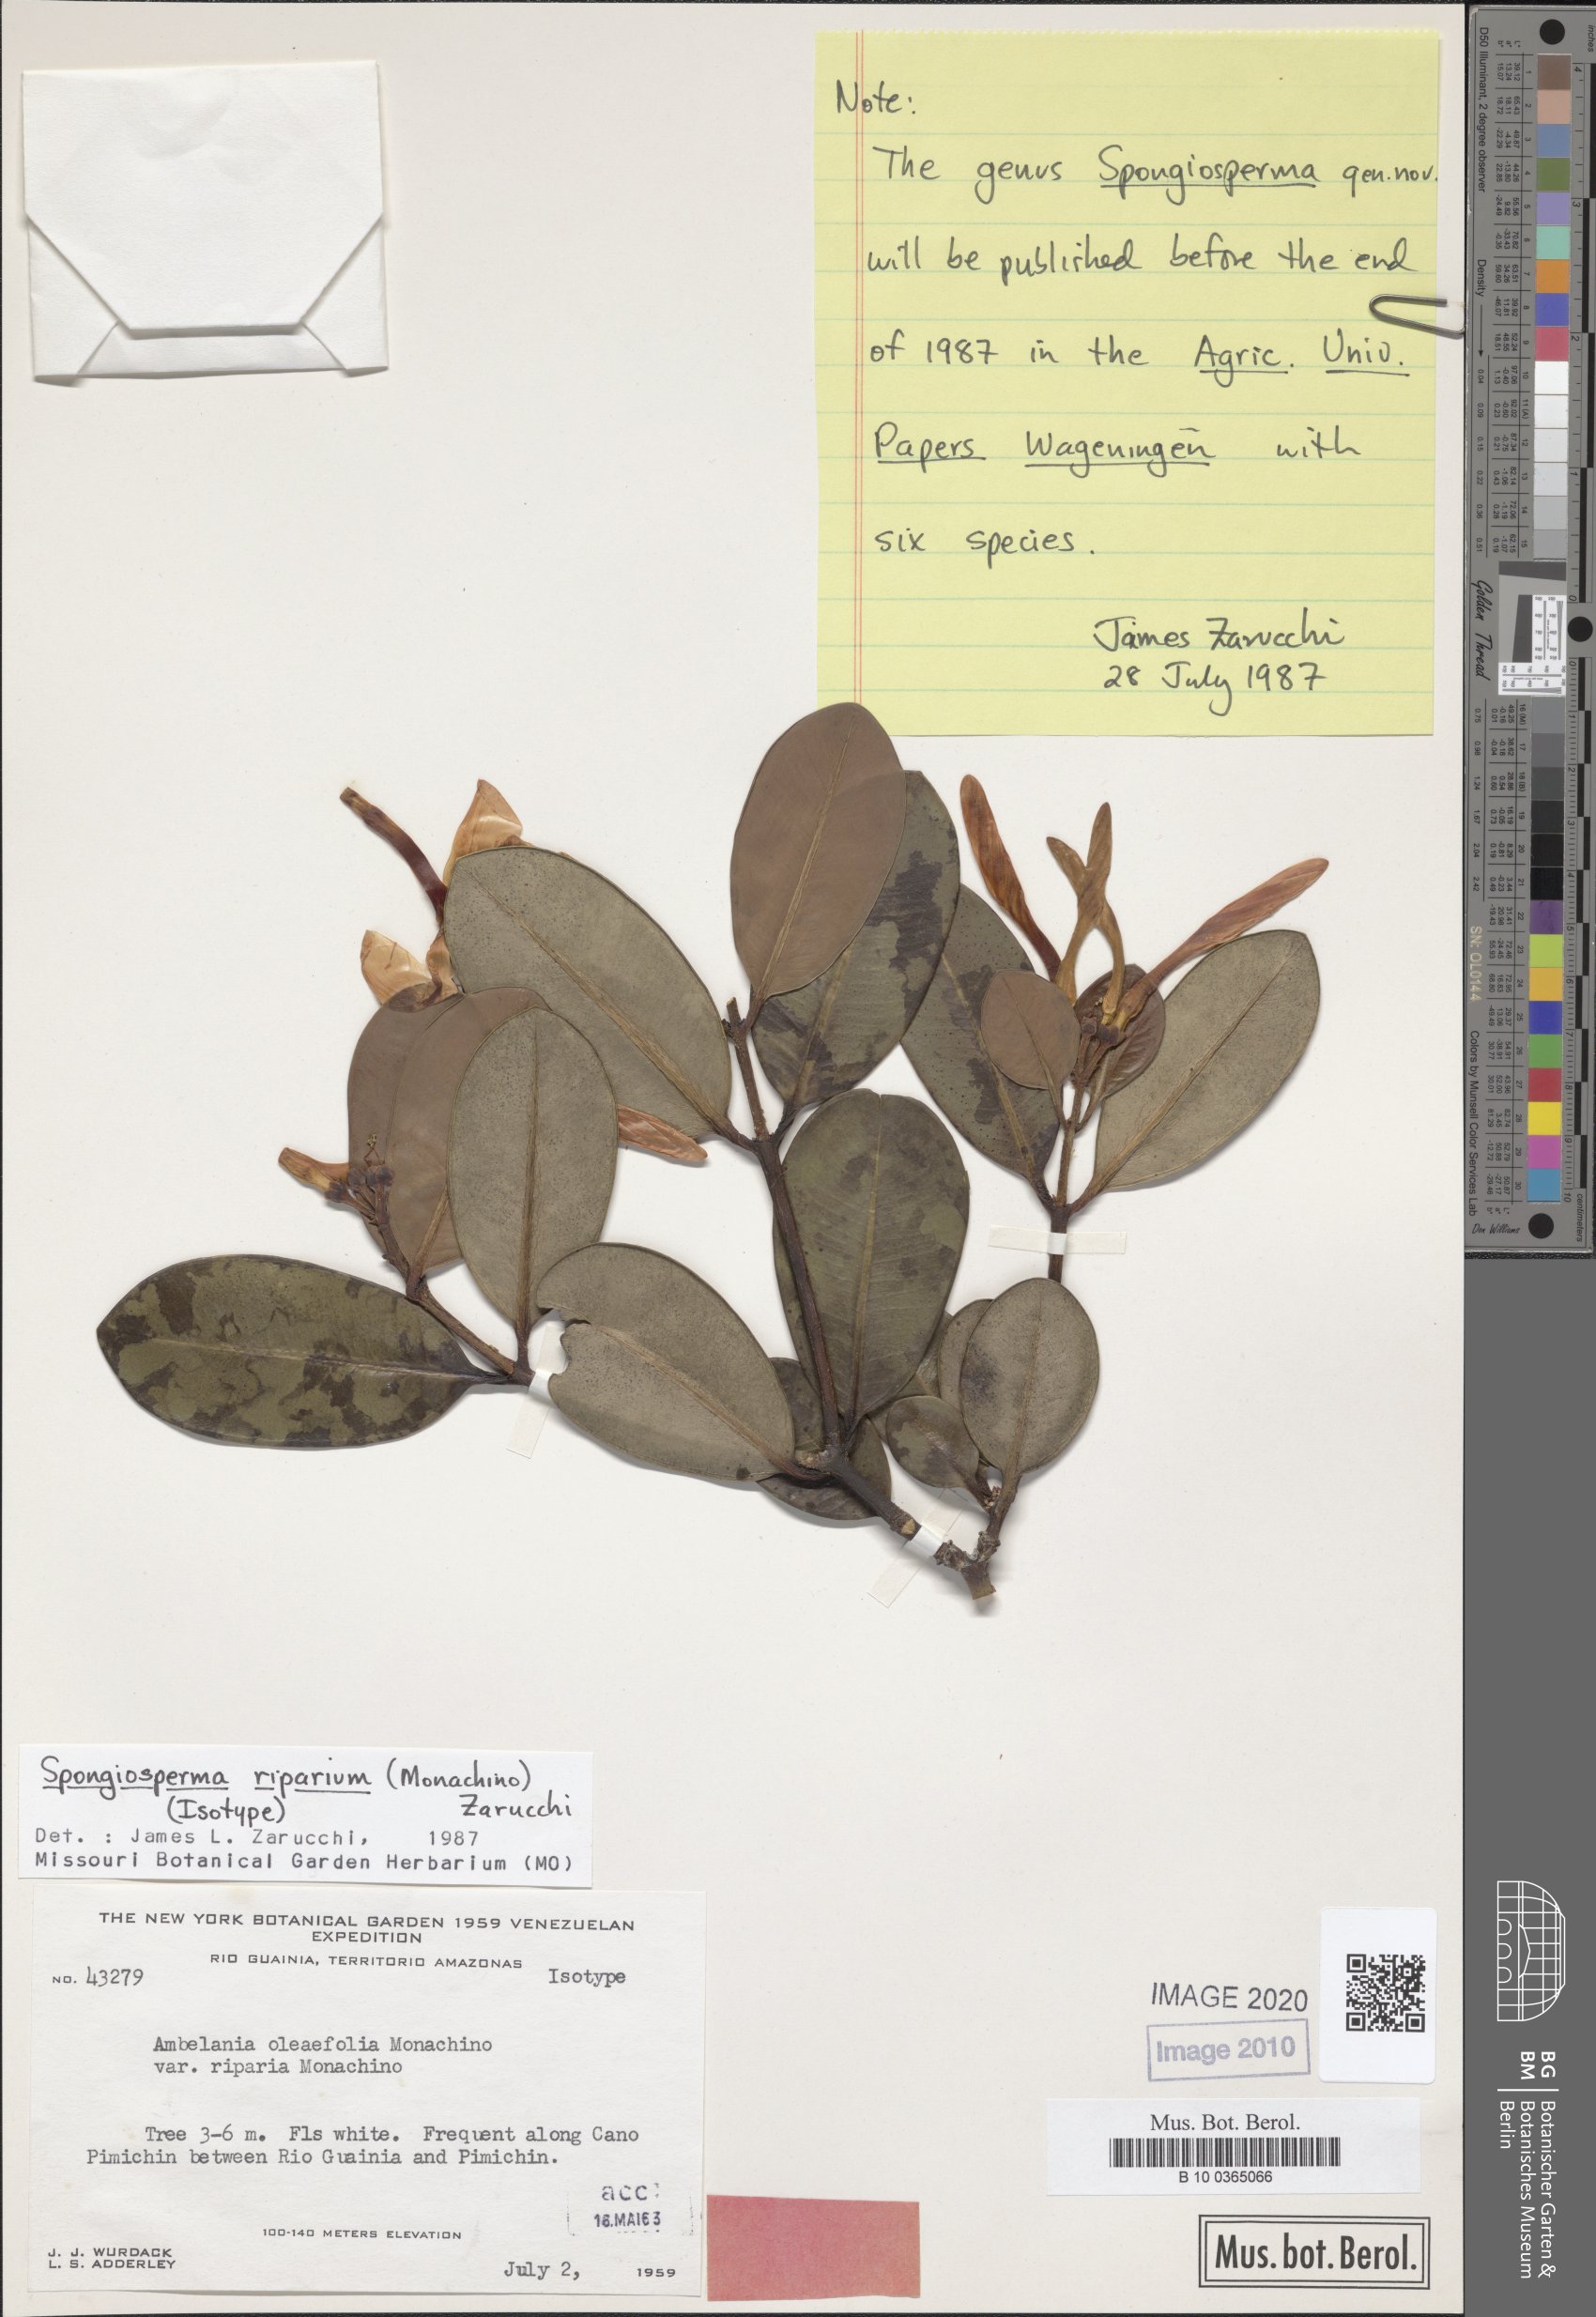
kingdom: Plantae
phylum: Tracheophyta
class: Magnoliopsida
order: Gentianales
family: Apocynaceae
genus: Spongiosperma
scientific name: Spongiosperma riparium
